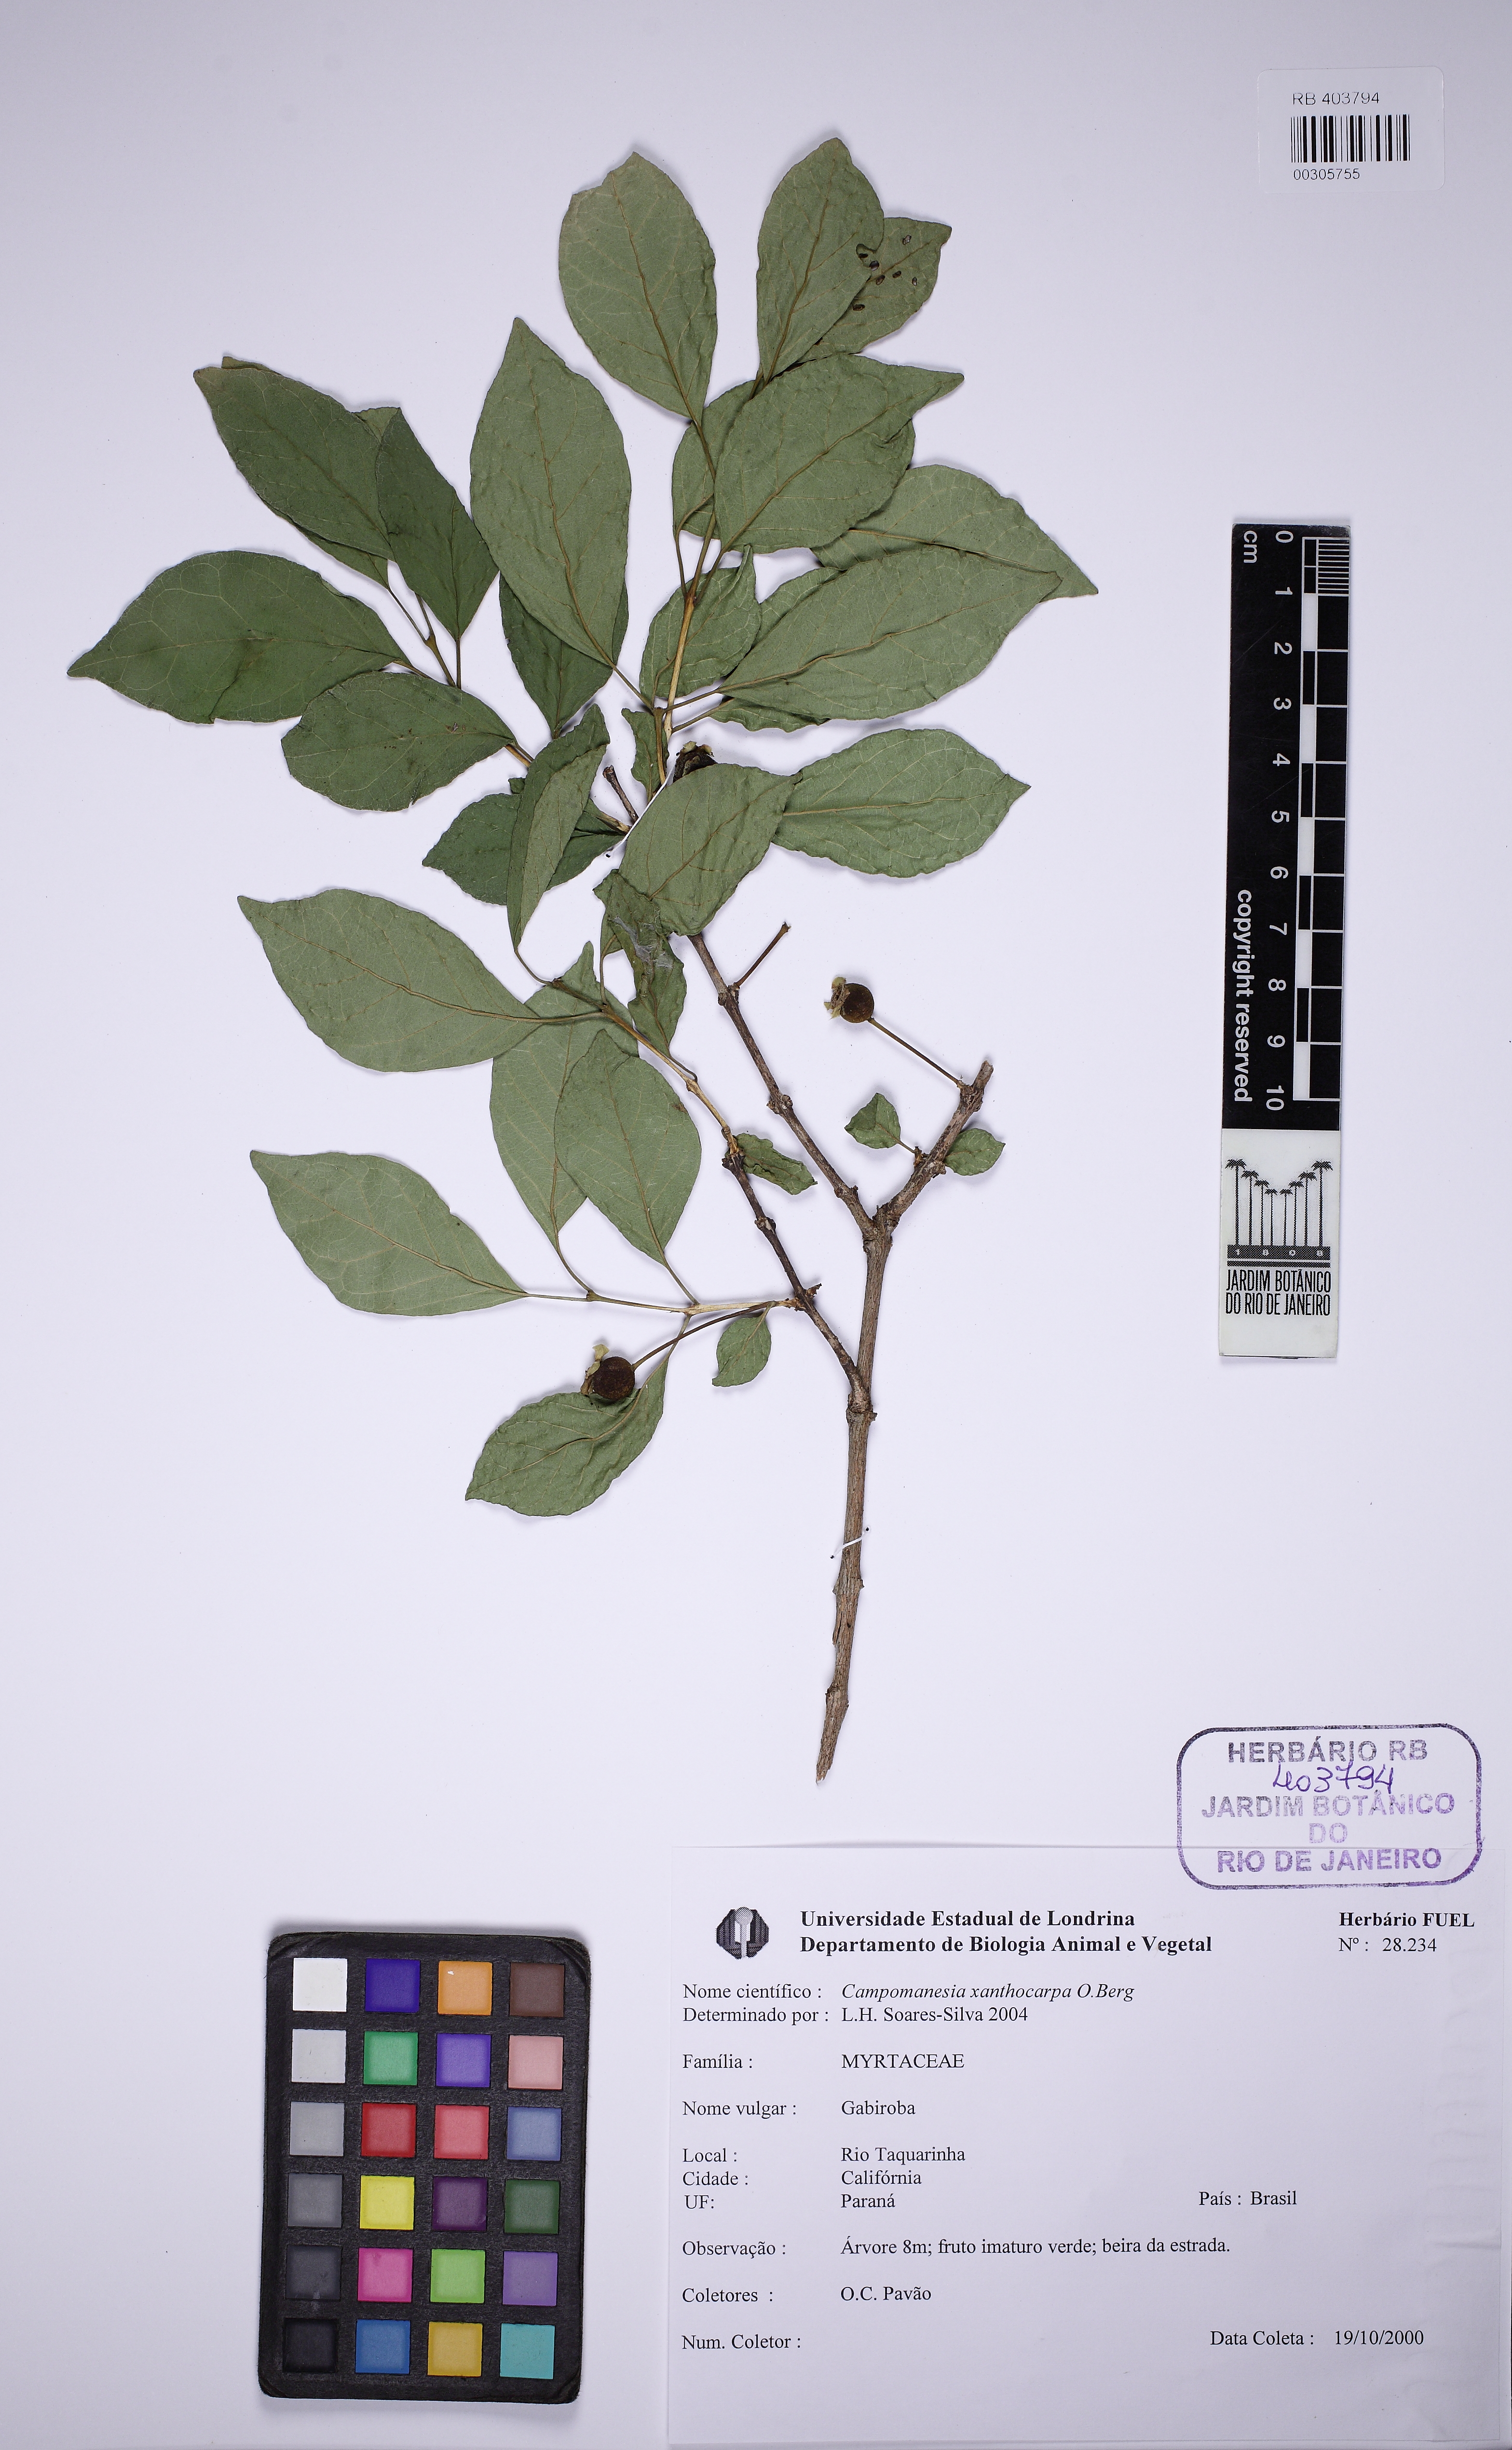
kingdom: Plantae
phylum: Tracheophyta
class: Magnoliopsida
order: Myrtales
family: Myrtaceae
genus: Campomanesia
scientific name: Campomanesia xanthocarpa
